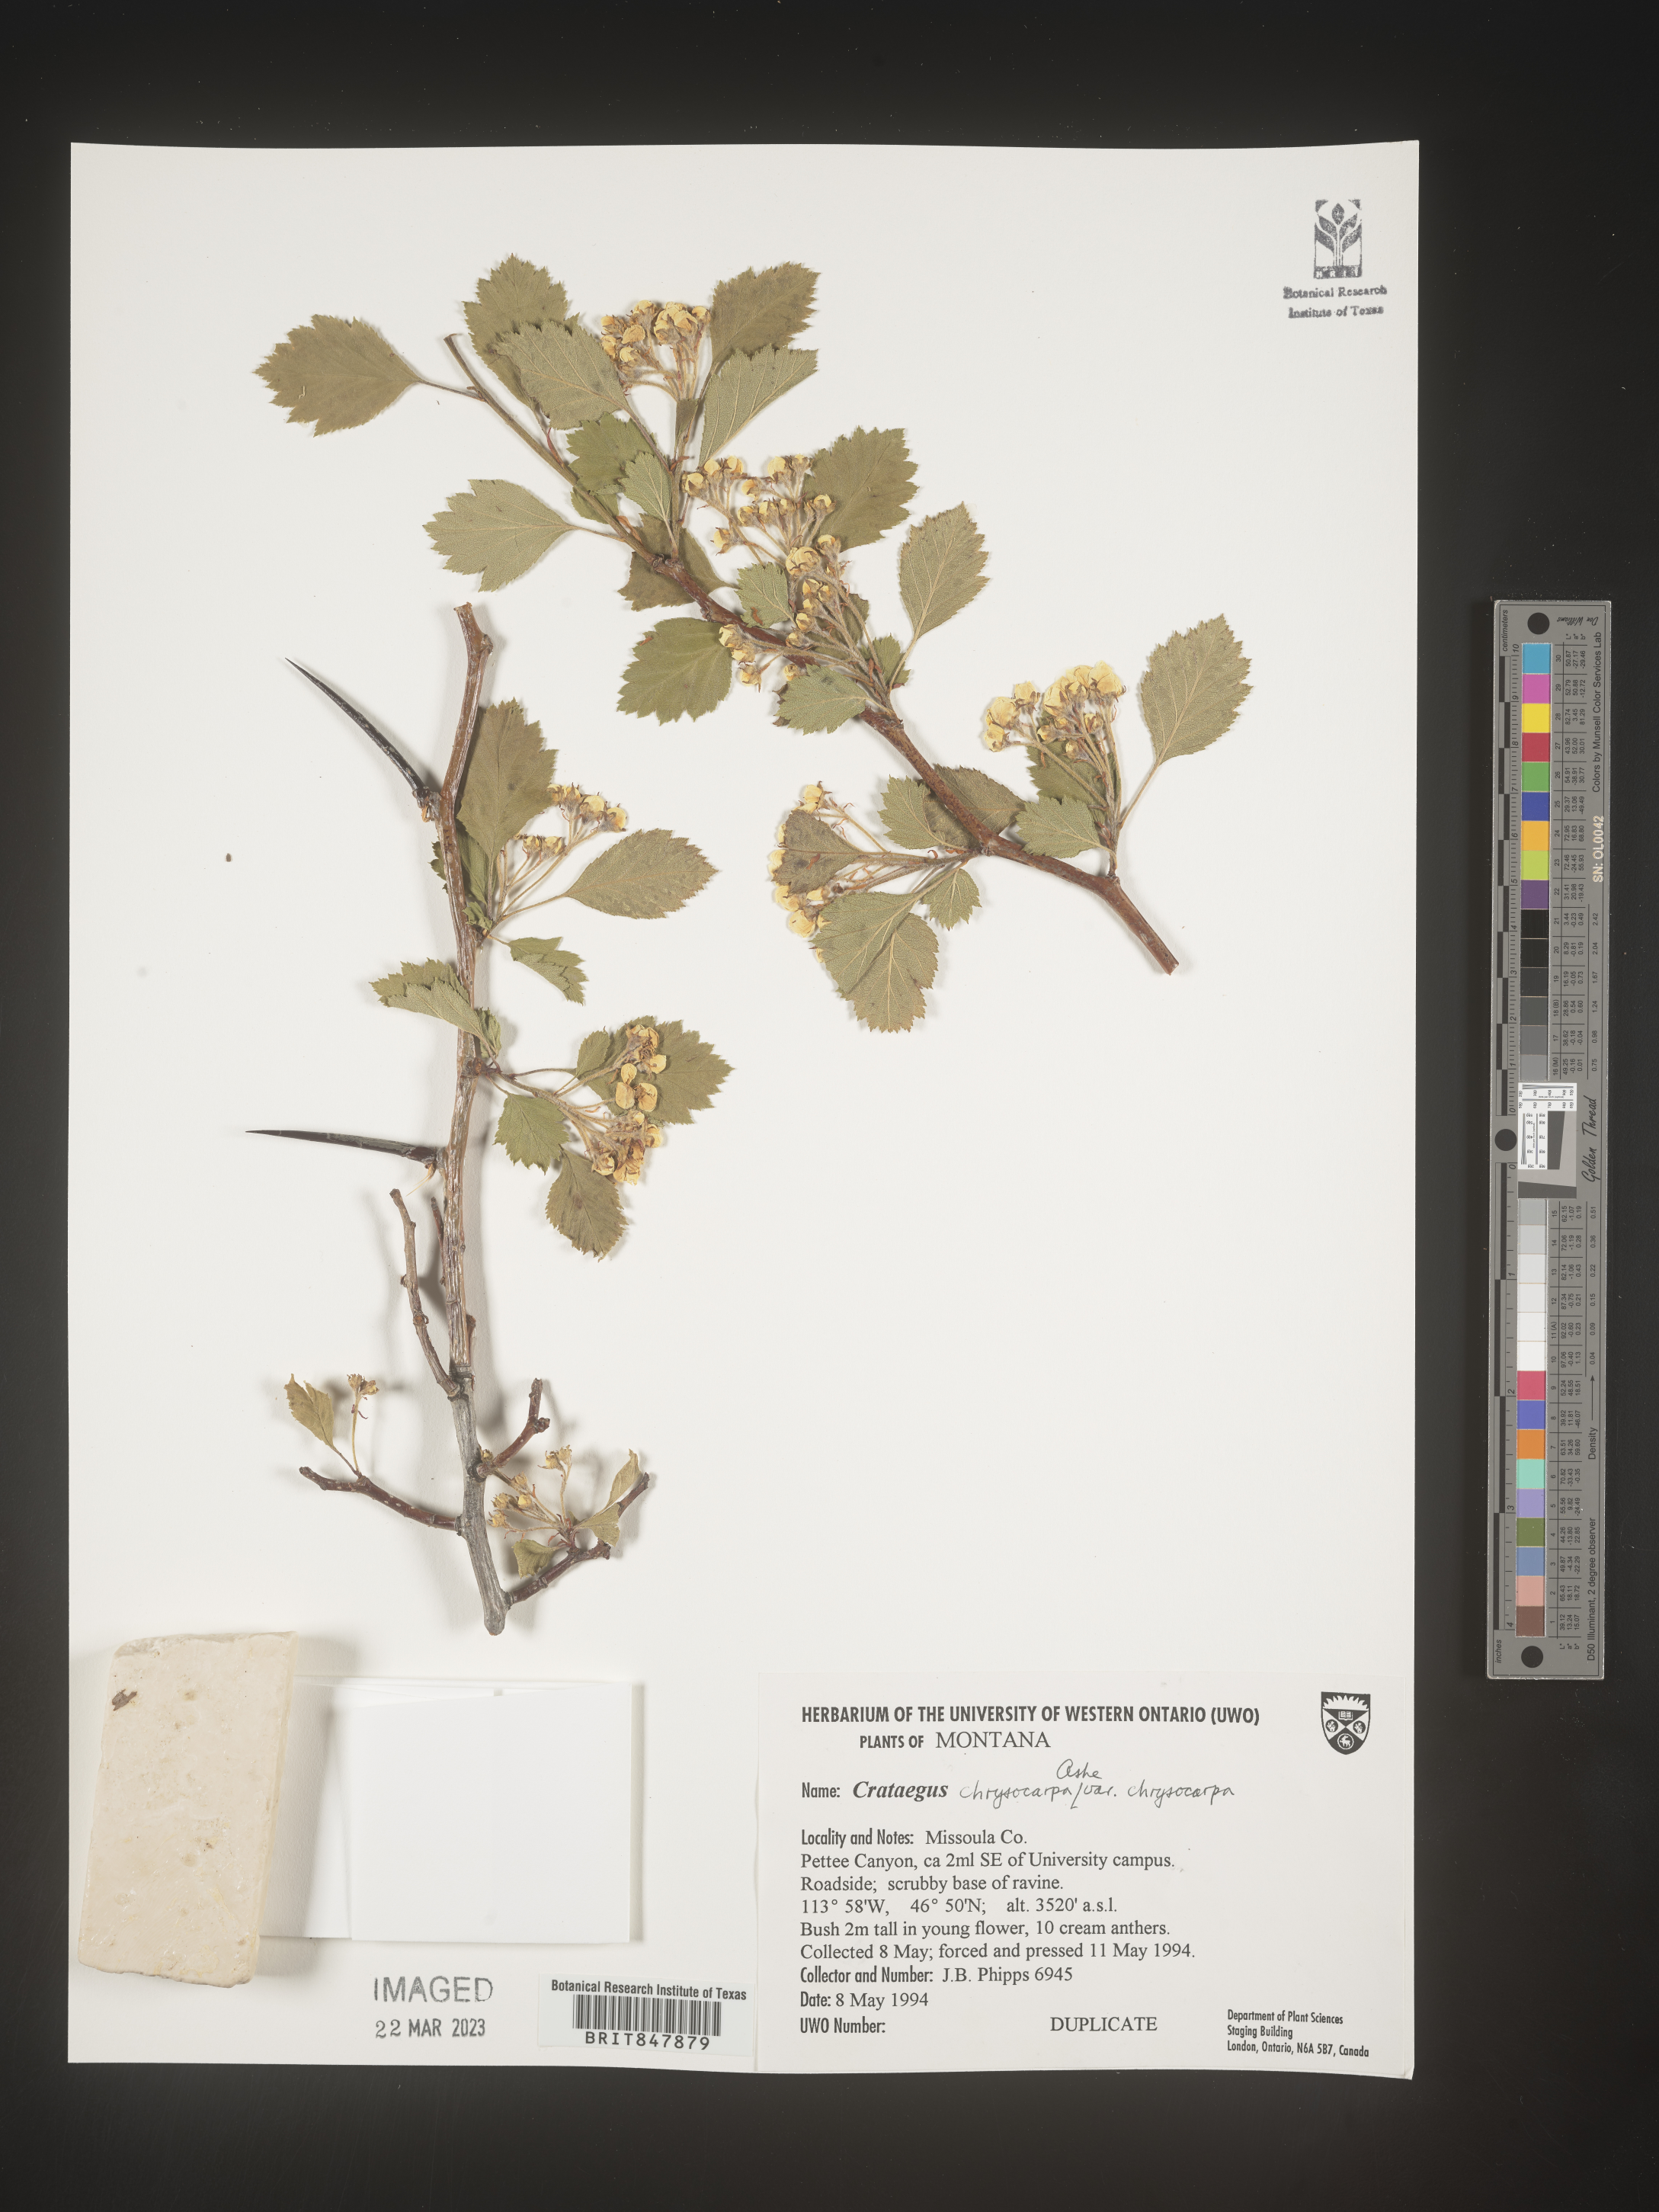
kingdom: Plantae
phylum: Tracheophyta
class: Magnoliopsida
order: Rosales
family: Rosaceae
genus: Crataegus
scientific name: Crataegus chrysocarpa
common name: Fire-berry hawthorn
